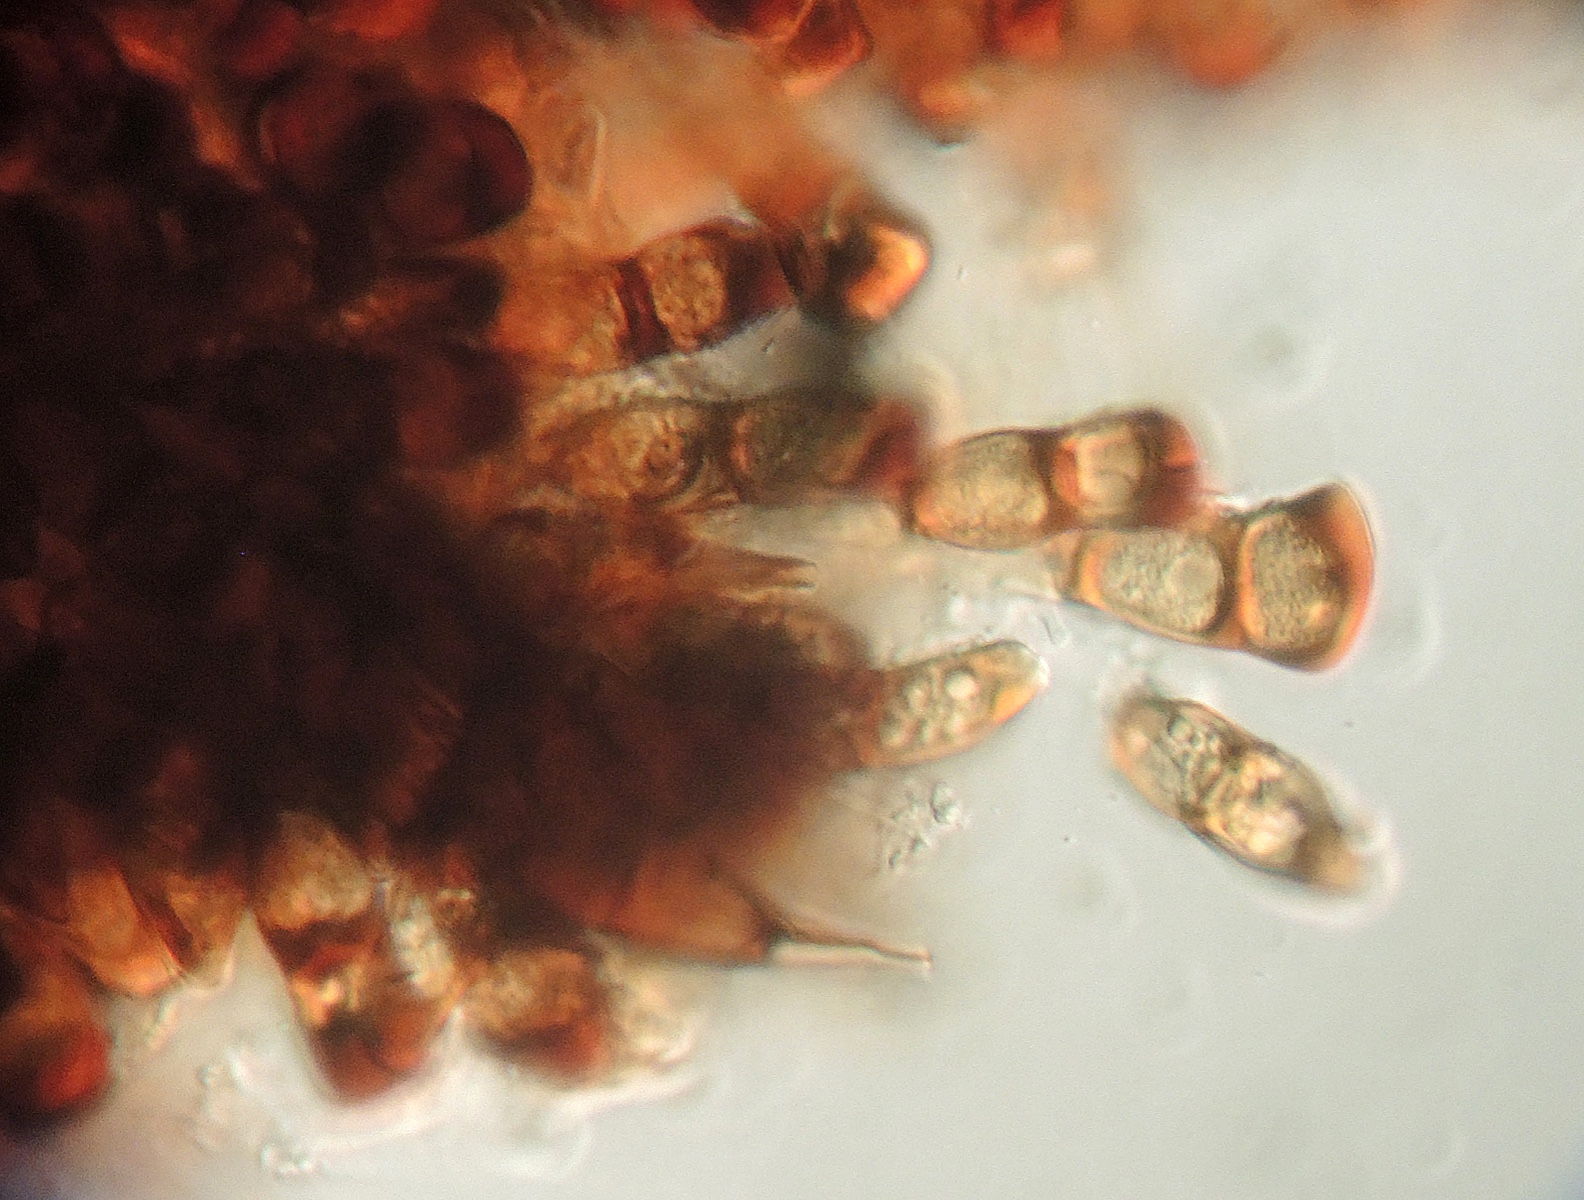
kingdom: Fungi
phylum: Basidiomycota
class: Pucciniomycetes
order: Pucciniales
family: Pucciniaceae
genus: Puccinia
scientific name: Puccinia difformis
